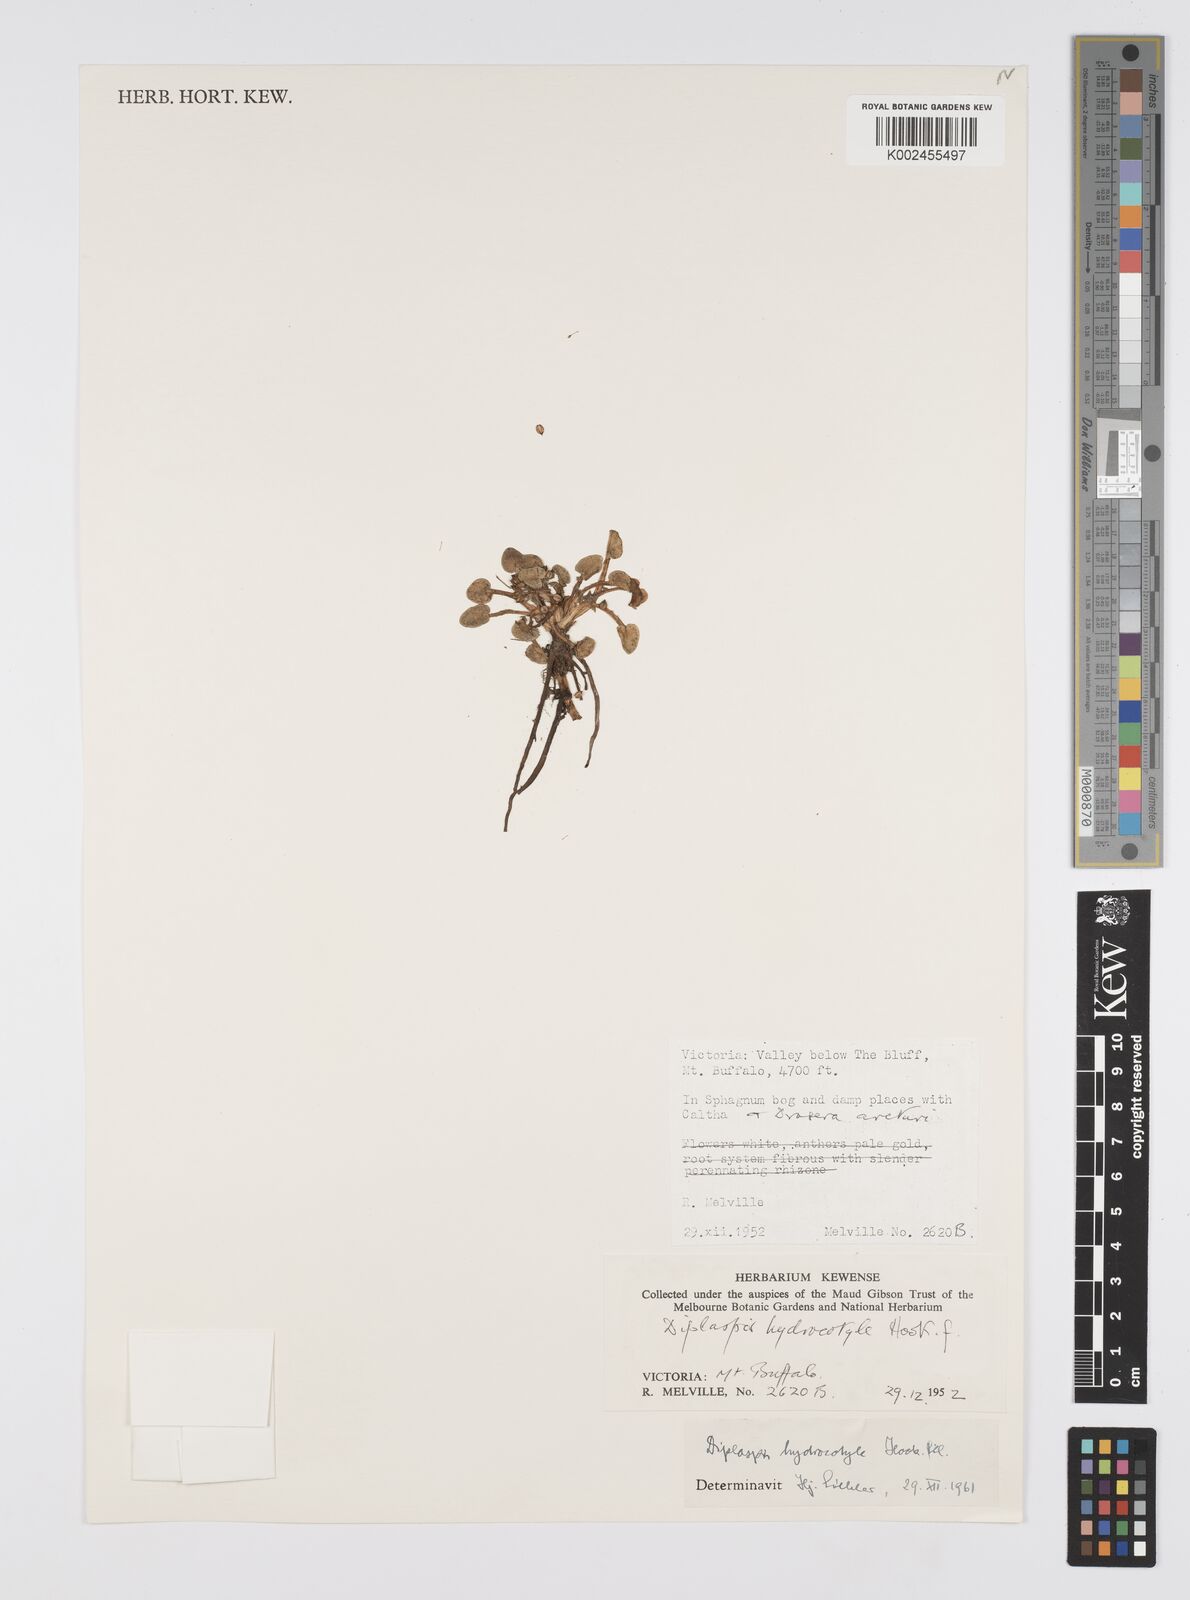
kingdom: Plantae
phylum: Tracheophyta
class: Magnoliopsida
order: Apiales
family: Apiaceae
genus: Diplaspis
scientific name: Diplaspis hydrocotylea
